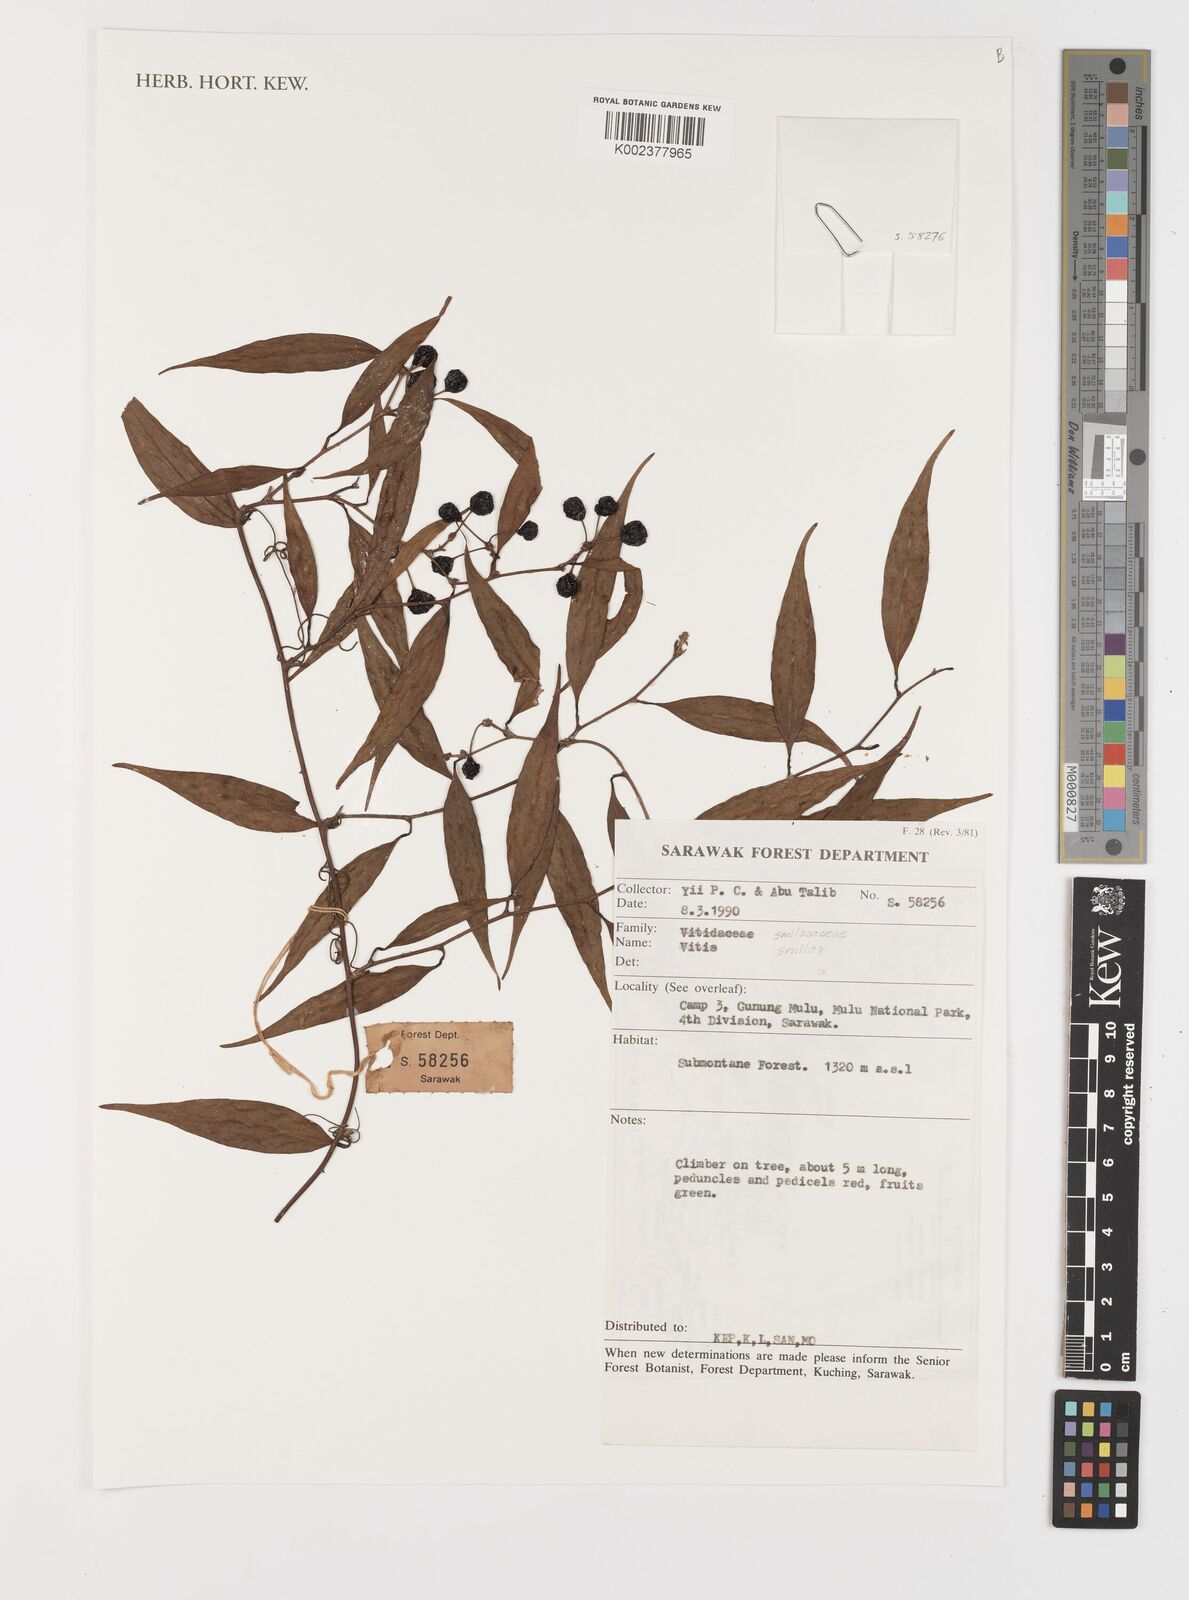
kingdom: Plantae
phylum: Tracheophyta
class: Liliopsida
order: Liliales
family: Smilacaceae
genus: Smilax
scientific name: Smilax
